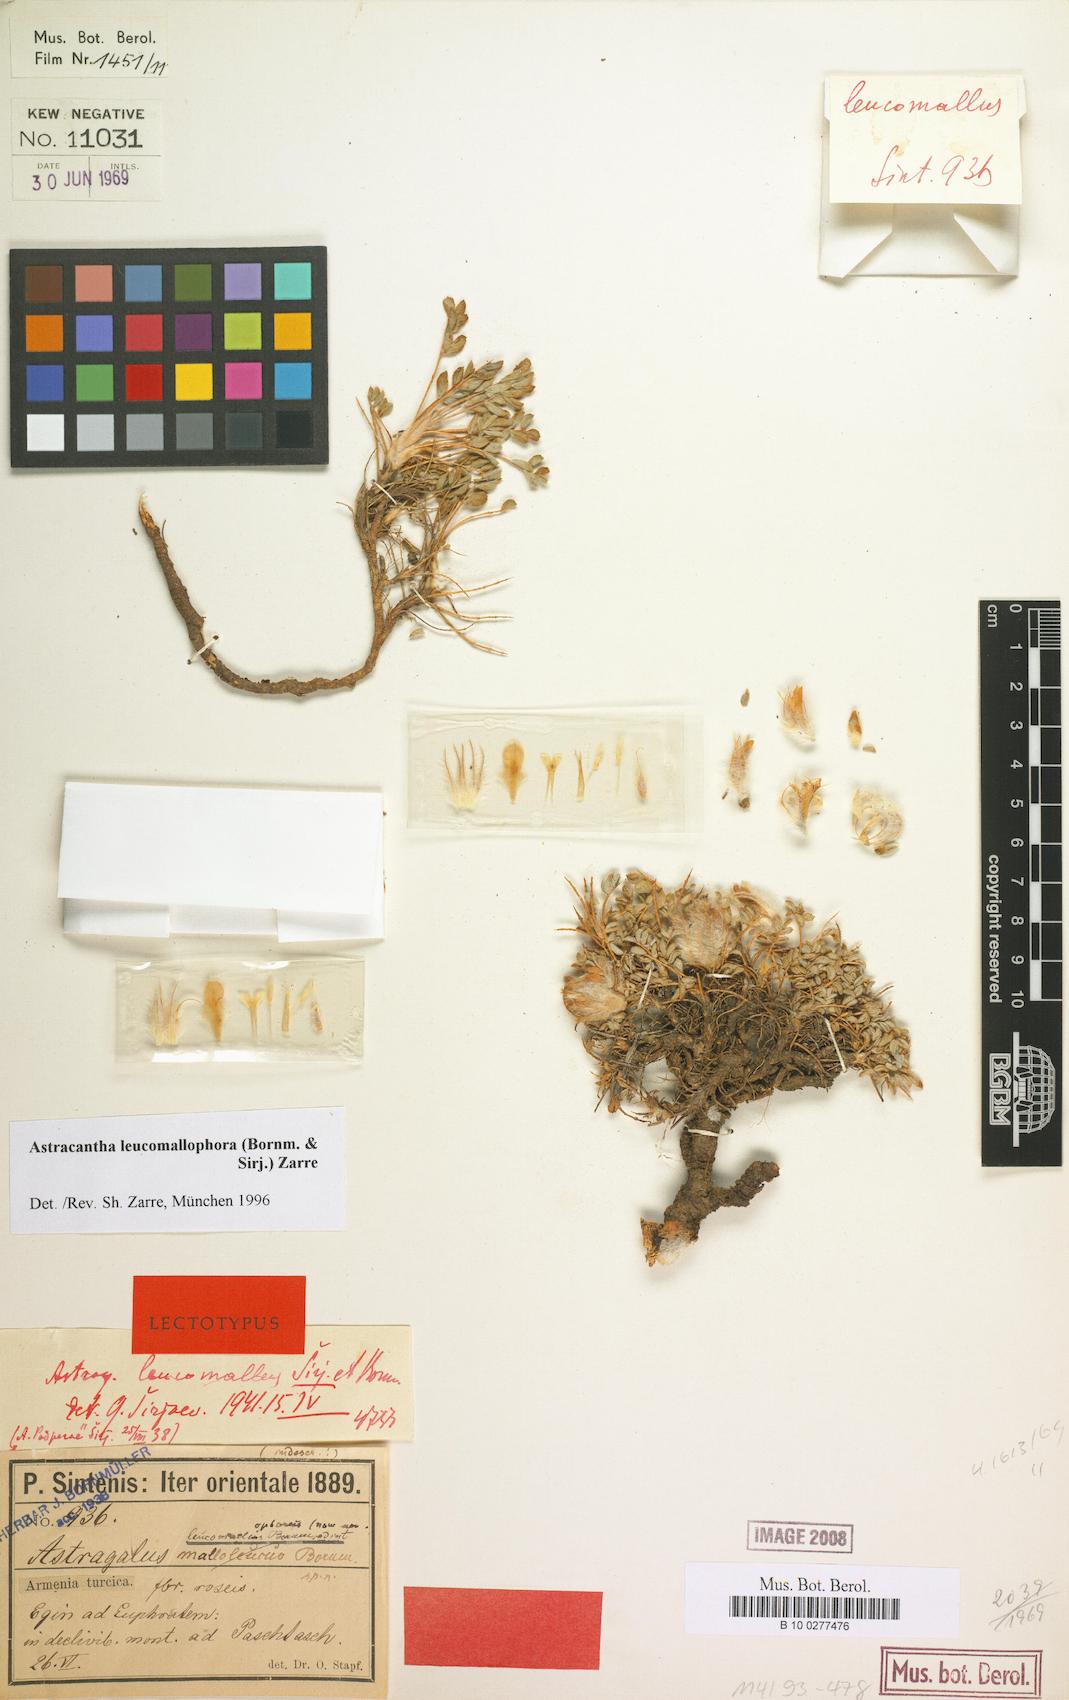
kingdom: Chromista
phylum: Cercozoa
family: Astracanthidae
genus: Astracantha
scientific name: Astracantha
